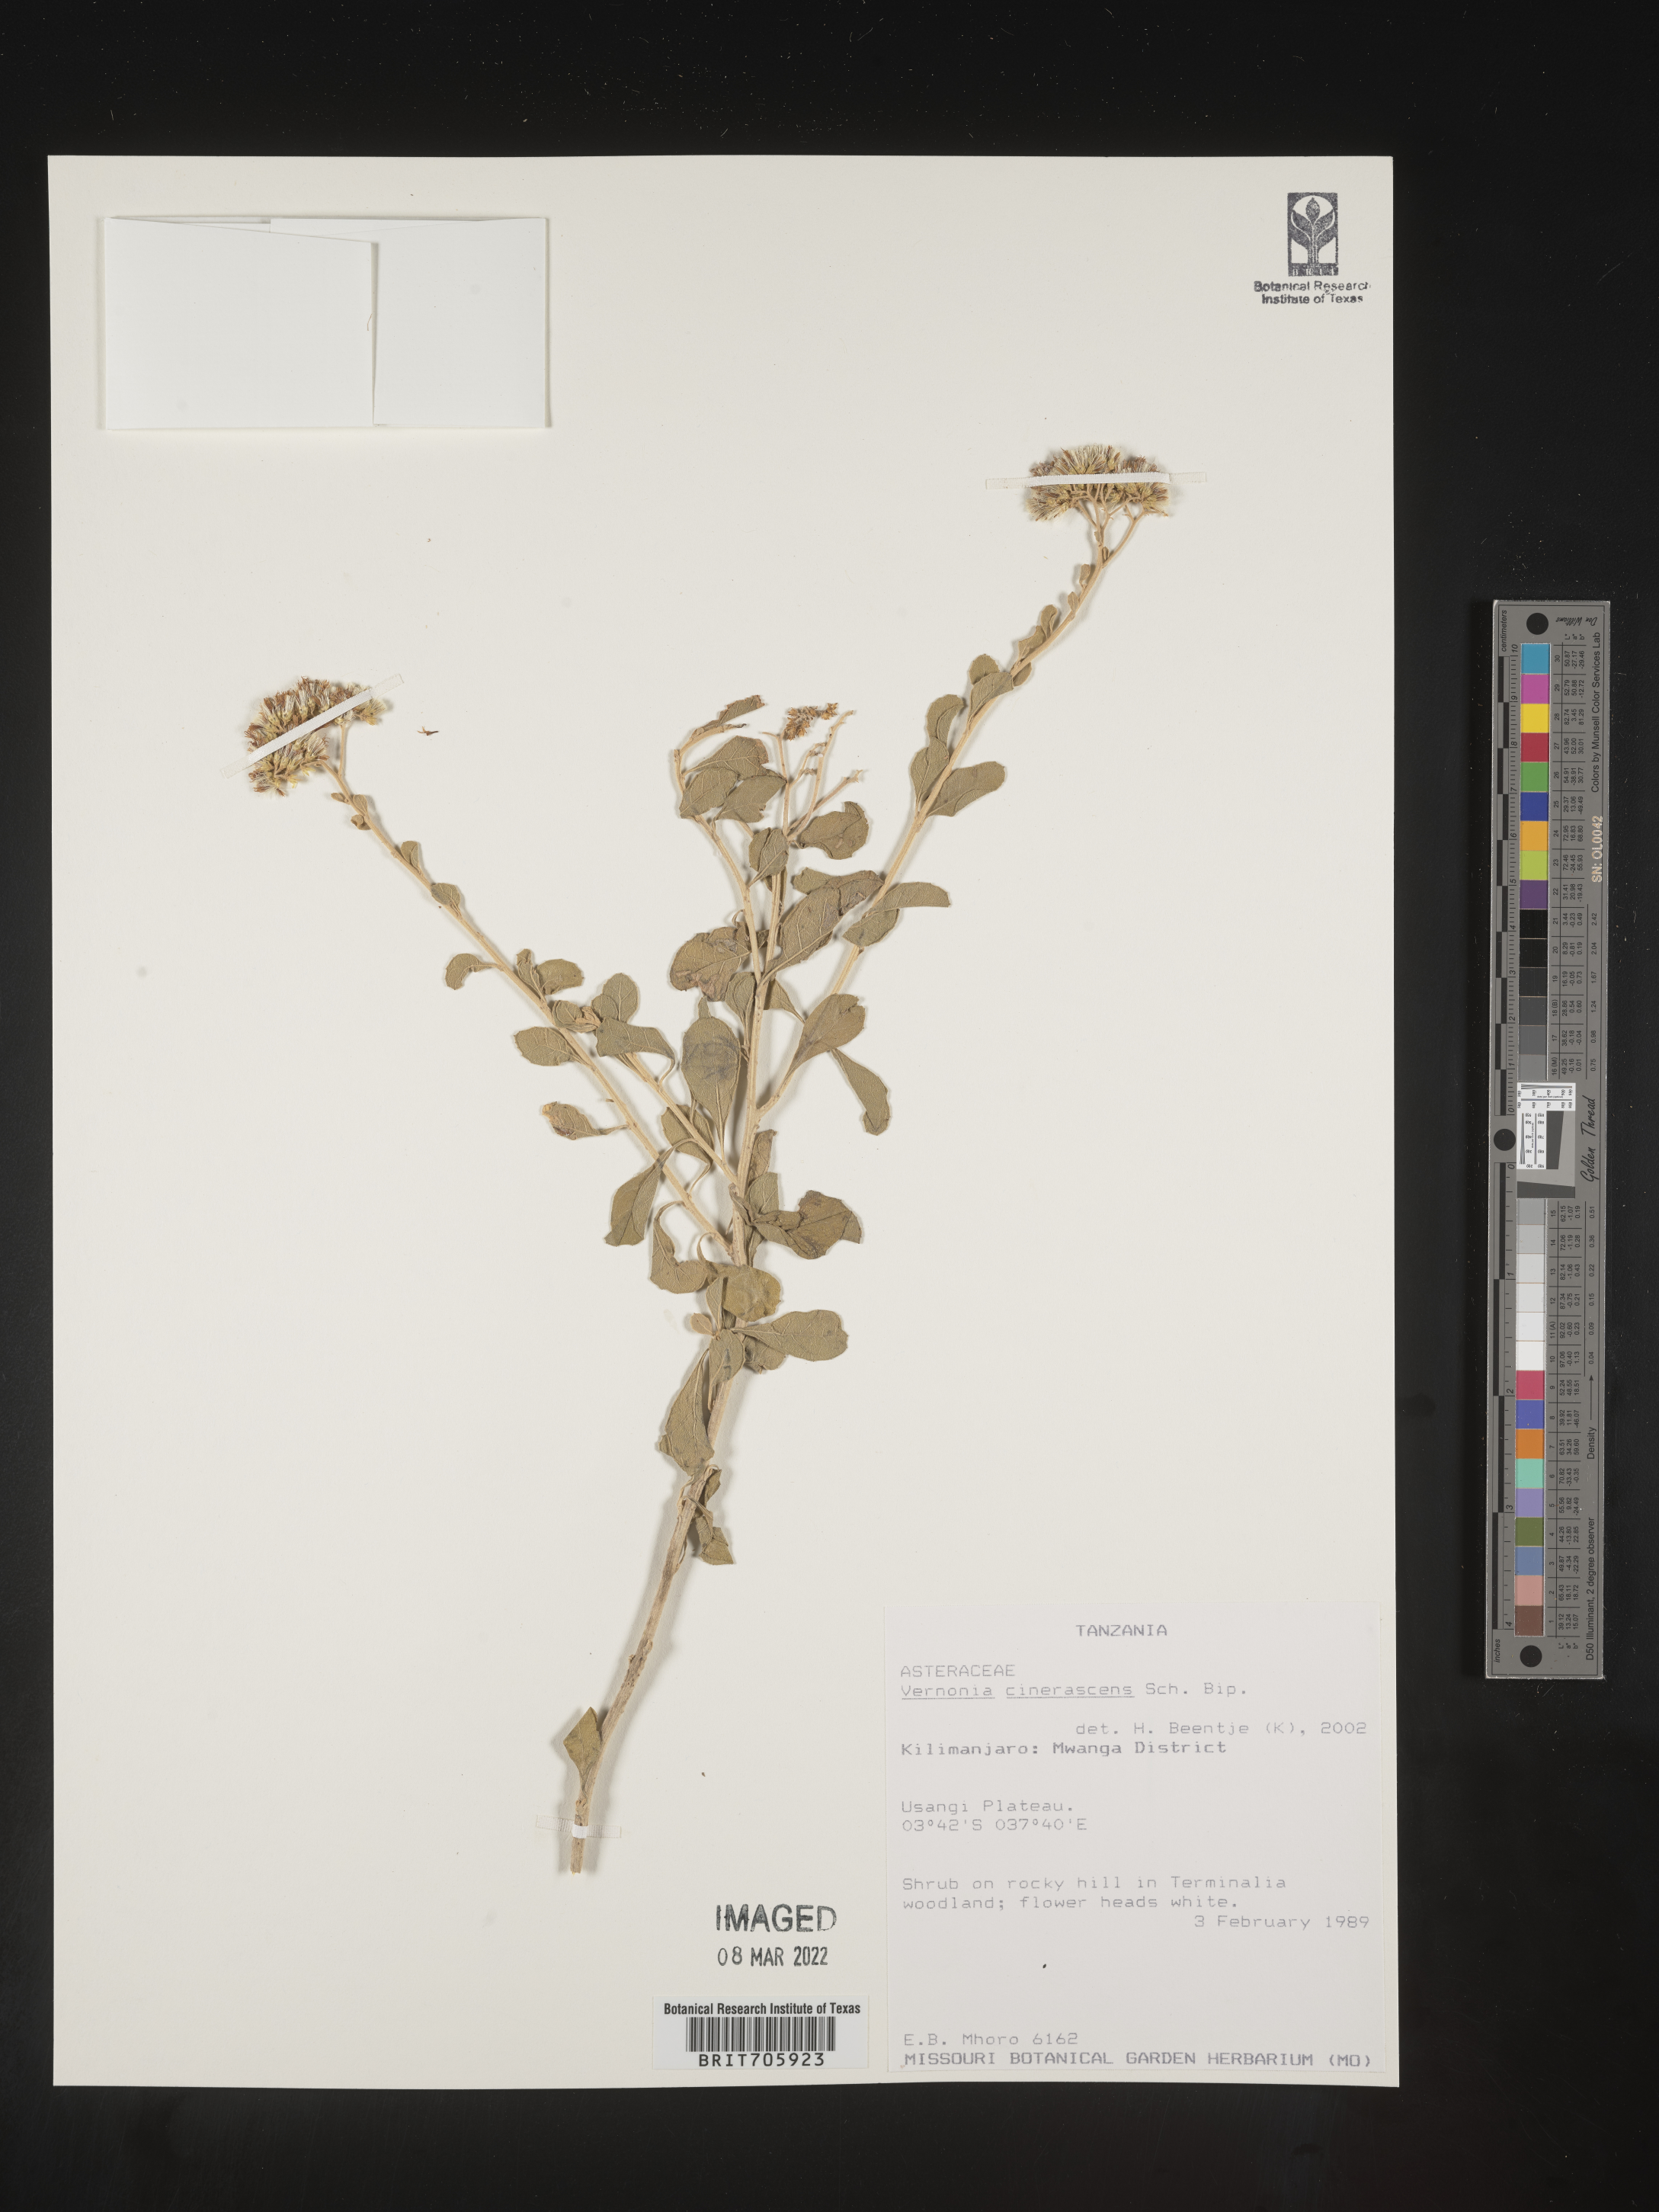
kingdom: Plantae
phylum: Tracheophyta
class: Magnoliopsida
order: Asterales
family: Asteraceae
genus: Vernonia
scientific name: Vernonia
